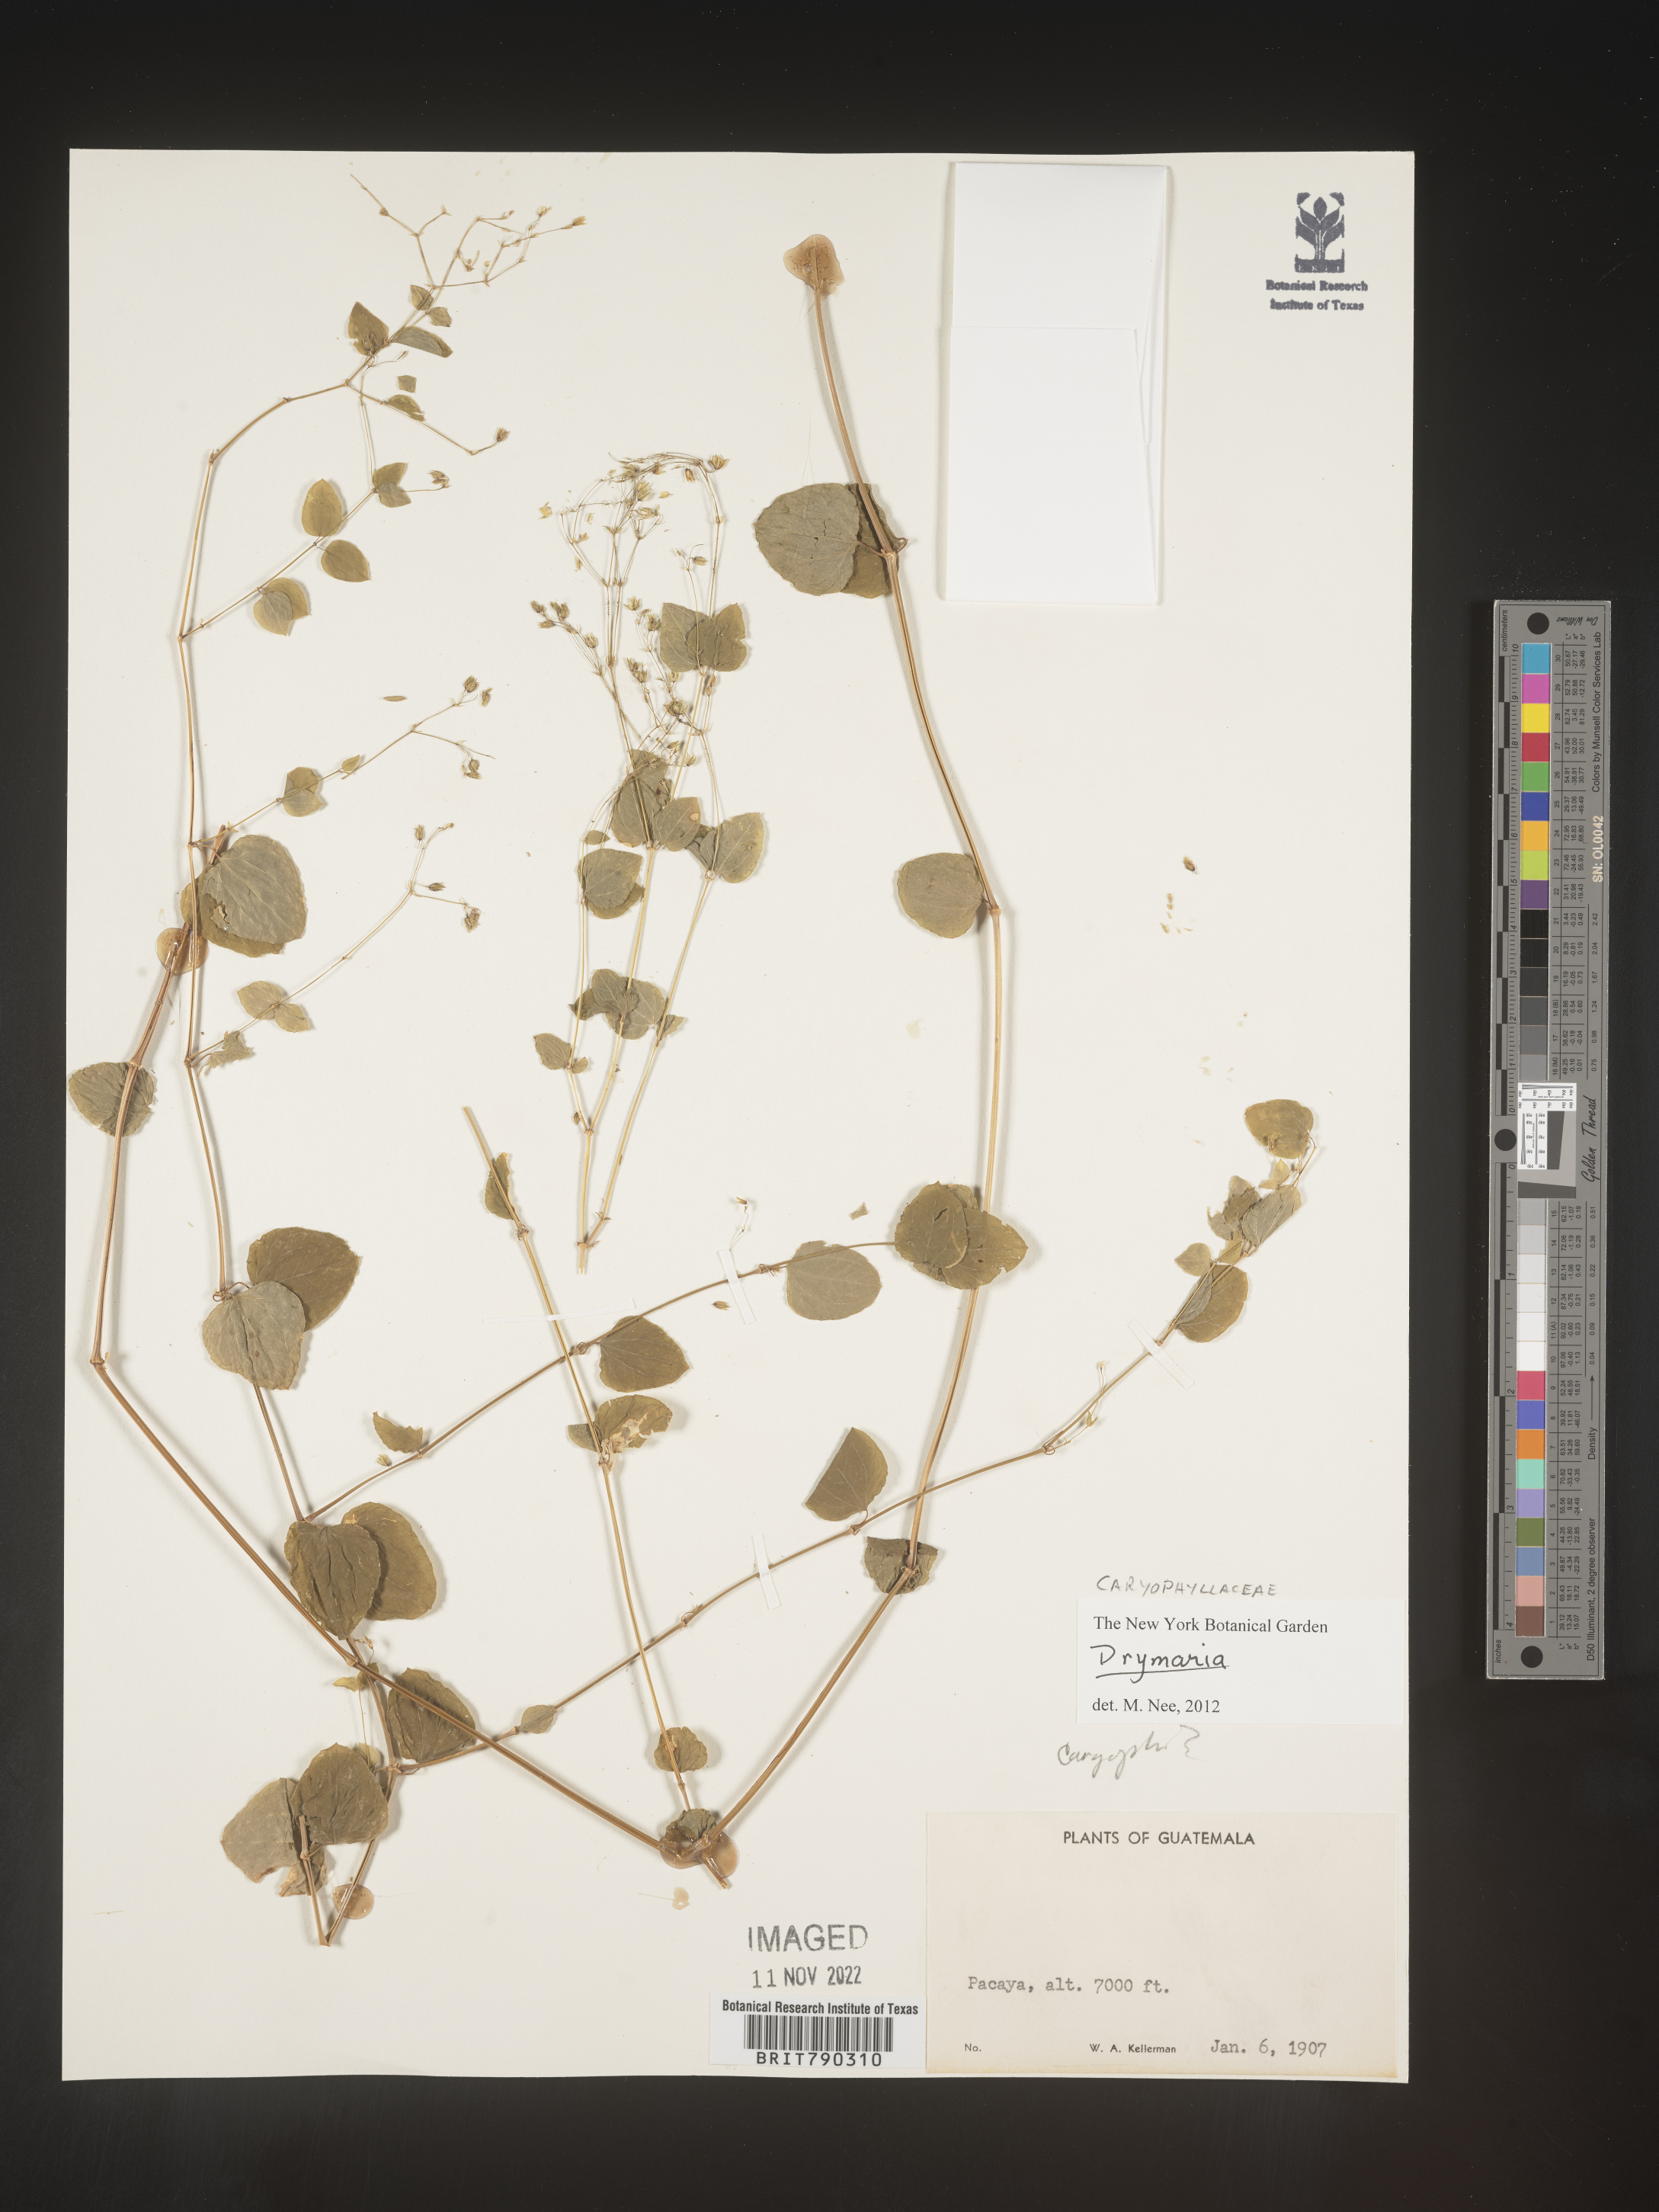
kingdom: Plantae
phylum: Tracheophyta
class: Magnoliopsida
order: Caryophyllales
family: Caryophyllaceae
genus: Drymaria
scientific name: Drymaria
